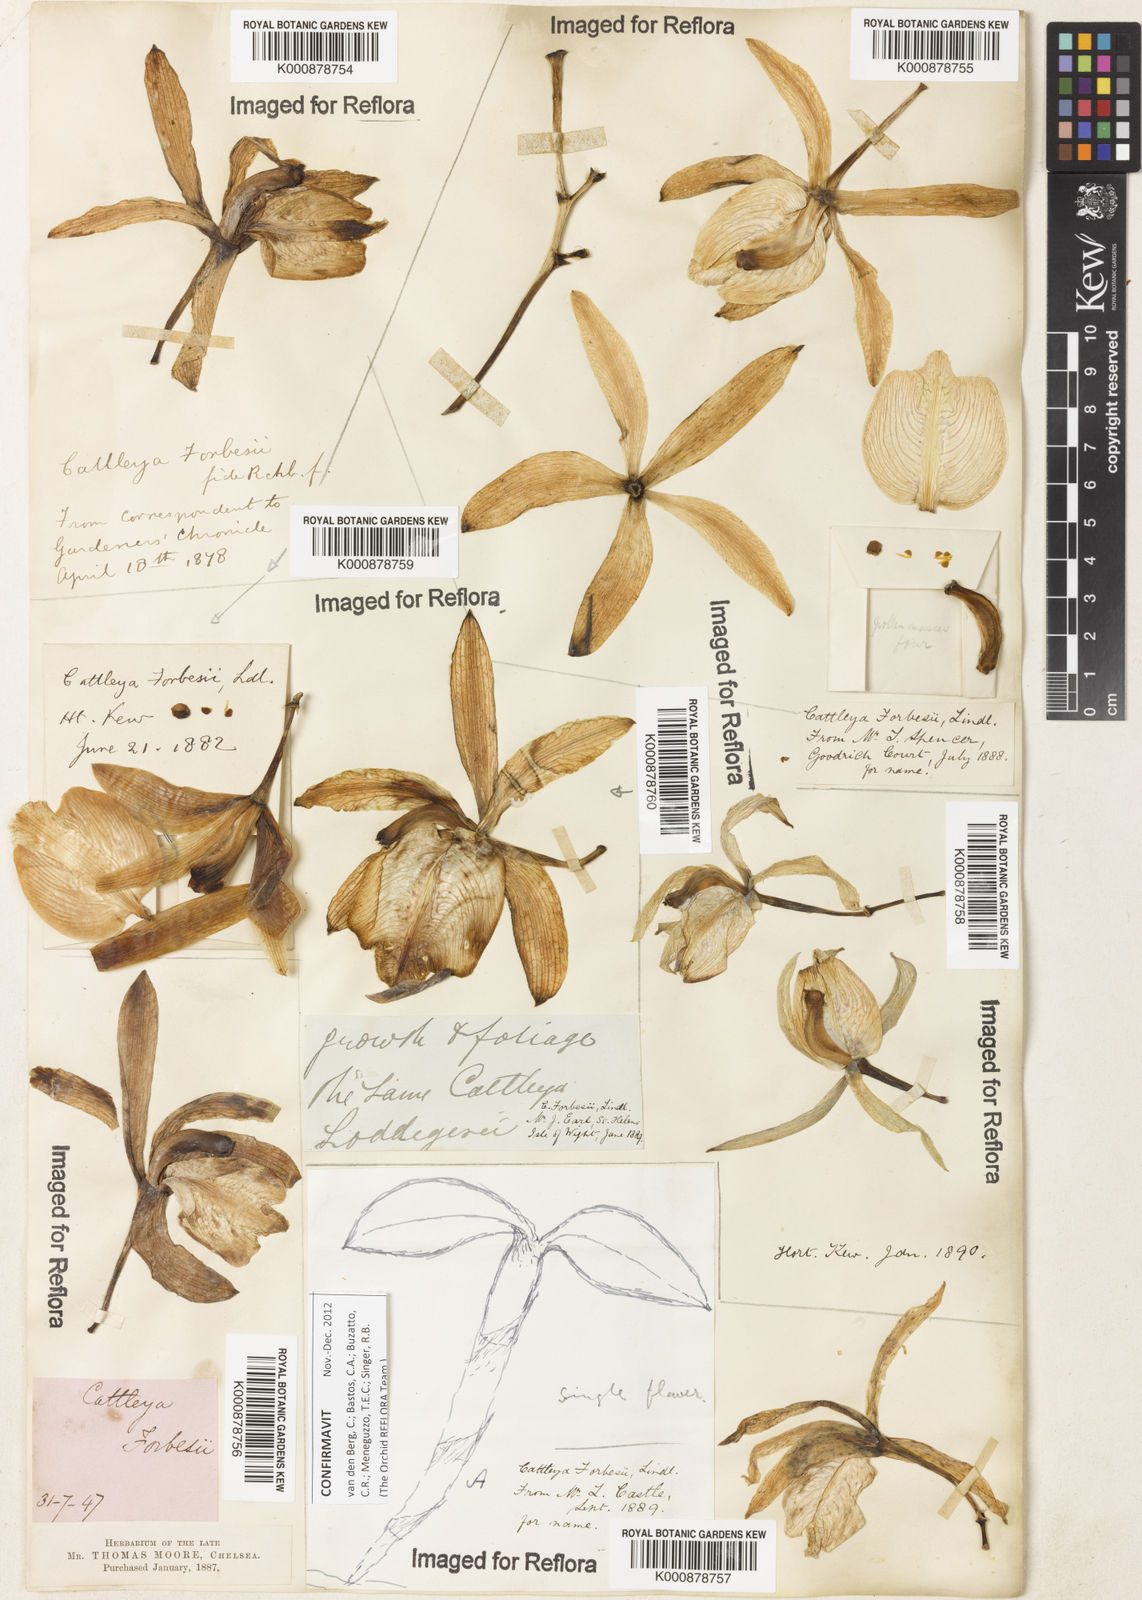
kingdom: Plantae
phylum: Tracheophyta
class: Liliopsida
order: Asparagales
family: Orchidaceae
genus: Cattleya
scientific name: Cattleya forbesii
